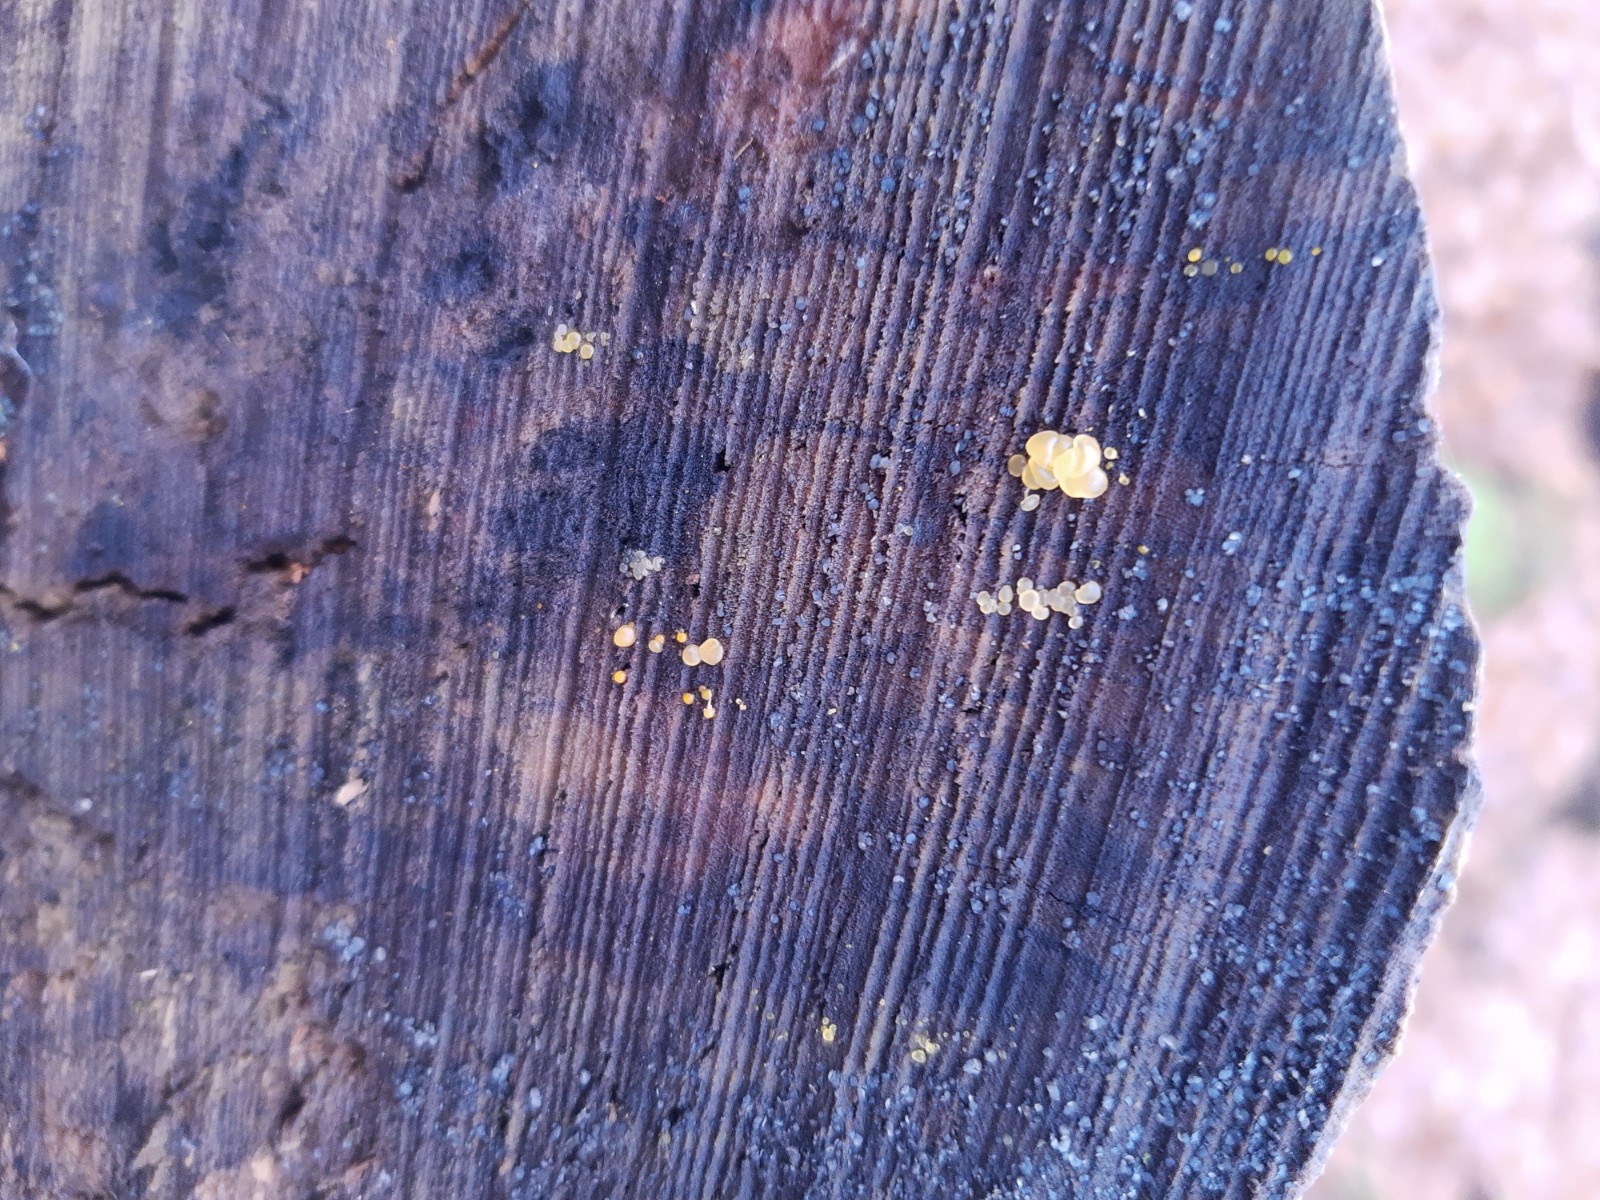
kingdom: Fungi
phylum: Basidiomycota
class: Dacrymycetes
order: Dacrymycetales
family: Dacrymycetaceae
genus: Dacrymyces
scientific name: Dacrymyces lacrymalis
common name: rynket tåresvamp
